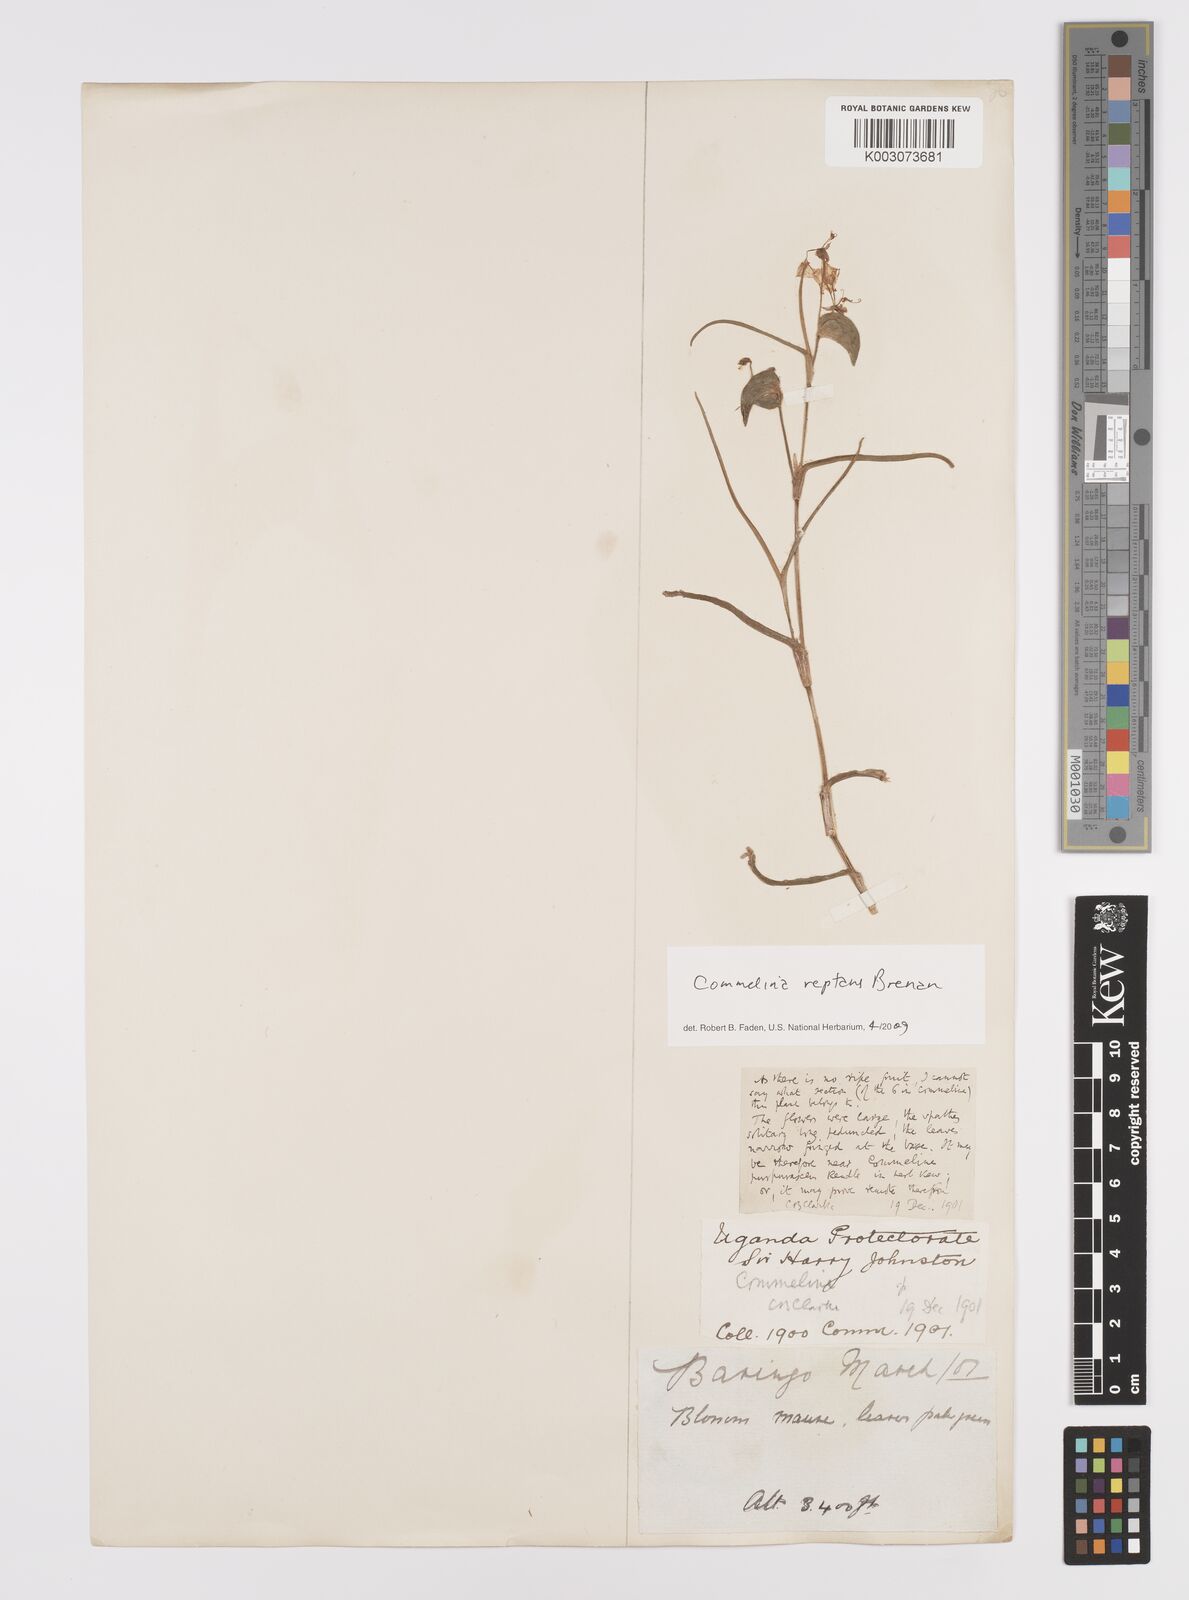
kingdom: Plantae
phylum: Tracheophyta
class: Liliopsida
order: Commelinales
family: Commelinaceae
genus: Commelina
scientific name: Commelina reptans
